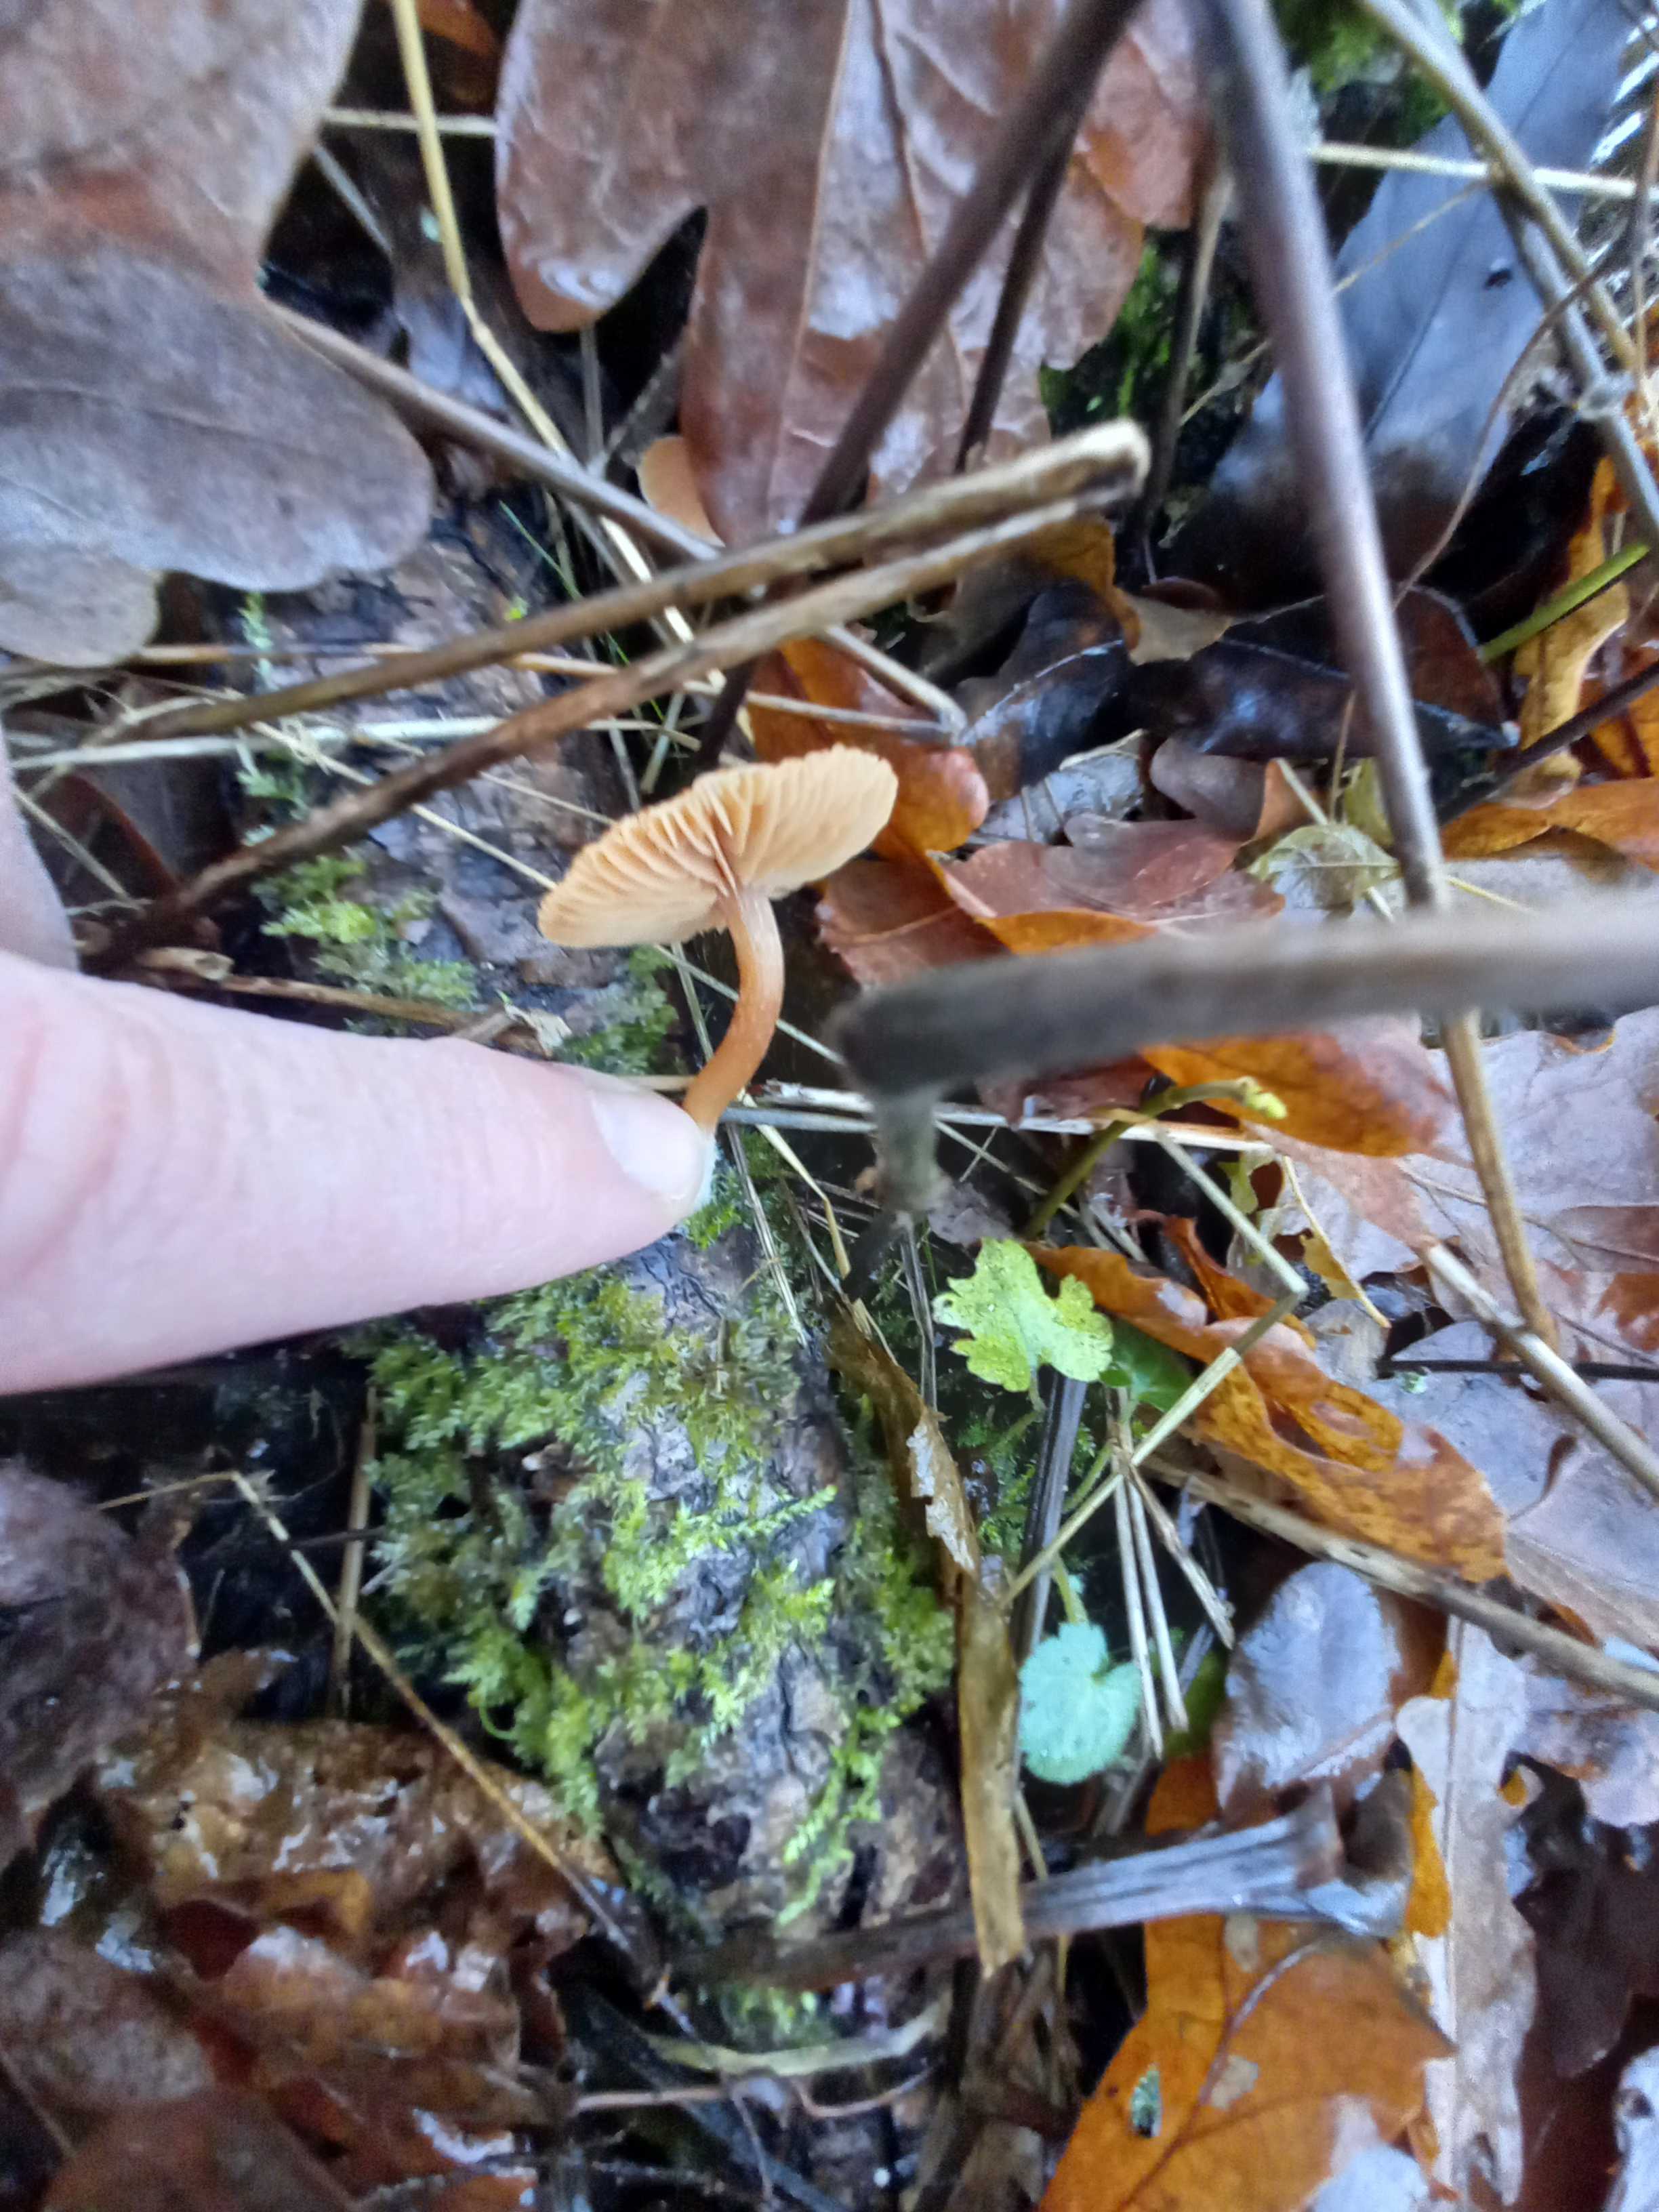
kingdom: Fungi
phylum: Basidiomycota
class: Agaricomycetes
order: Agaricales
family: Tubariaceae
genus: Tubaria
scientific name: Tubaria furfuracea
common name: kliddet fnughat
